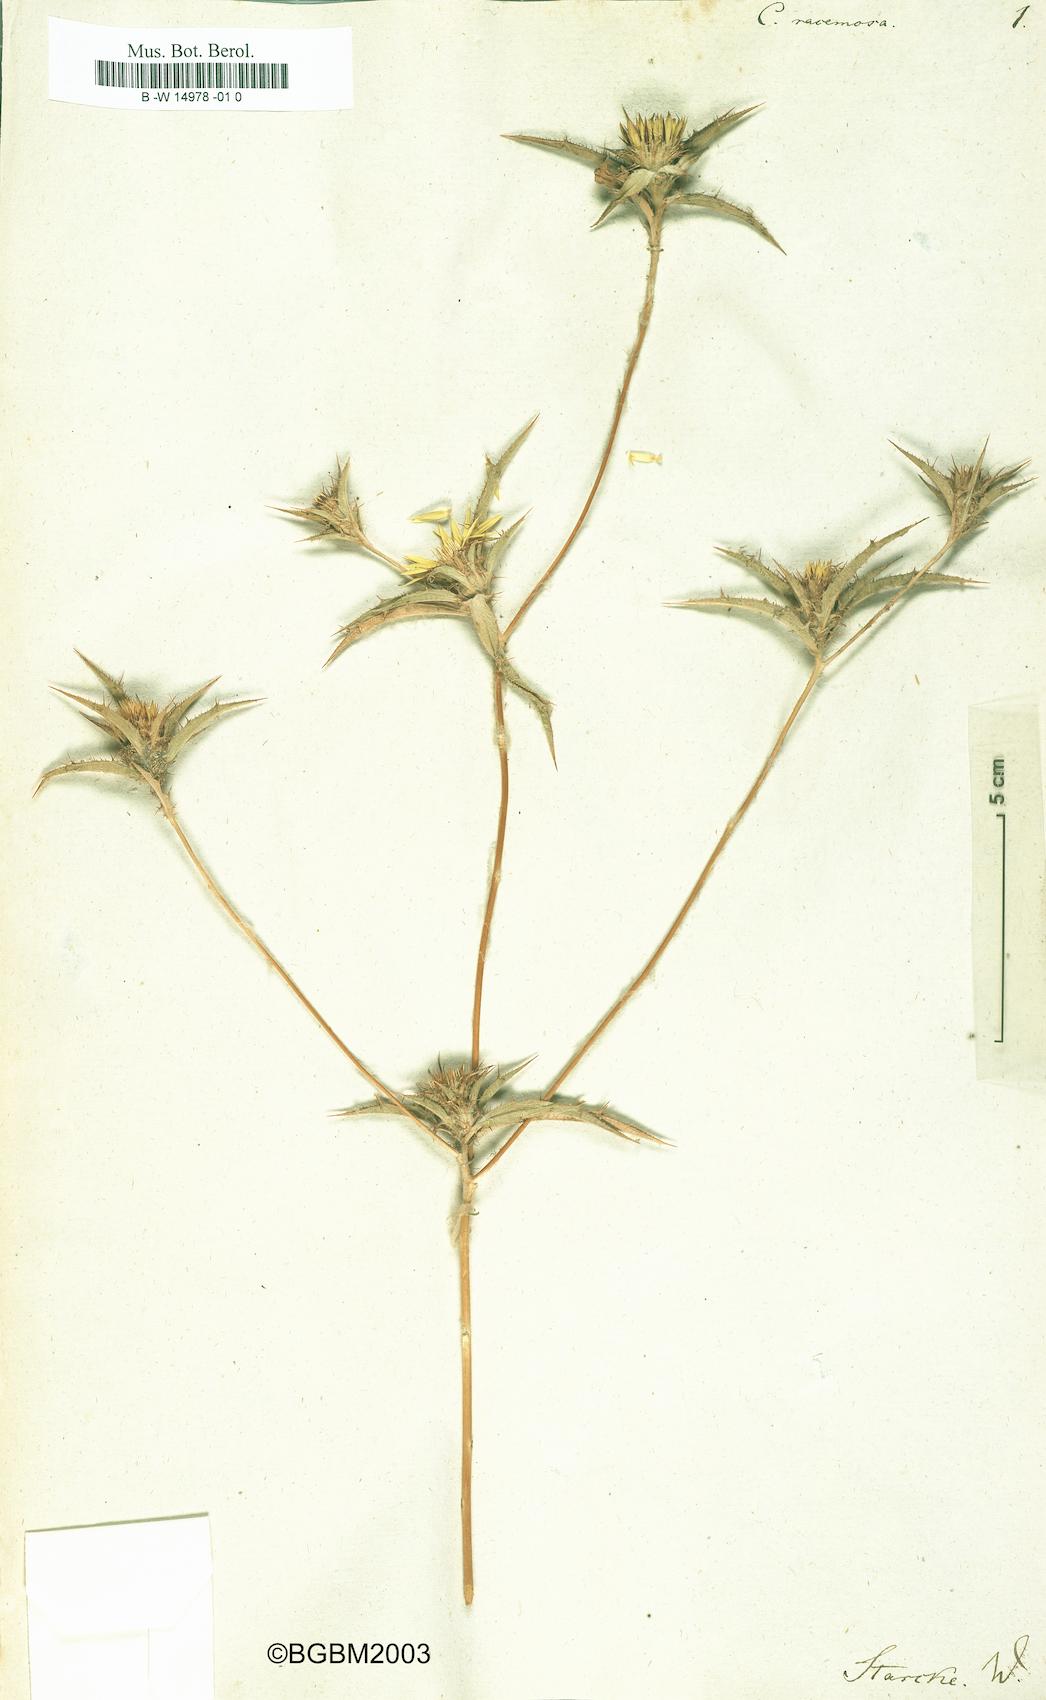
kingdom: Plantae
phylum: Tracheophyta
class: Magnoliopsida
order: Asterales
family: Asteraceae
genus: Carlina
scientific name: Carlina racemosa
